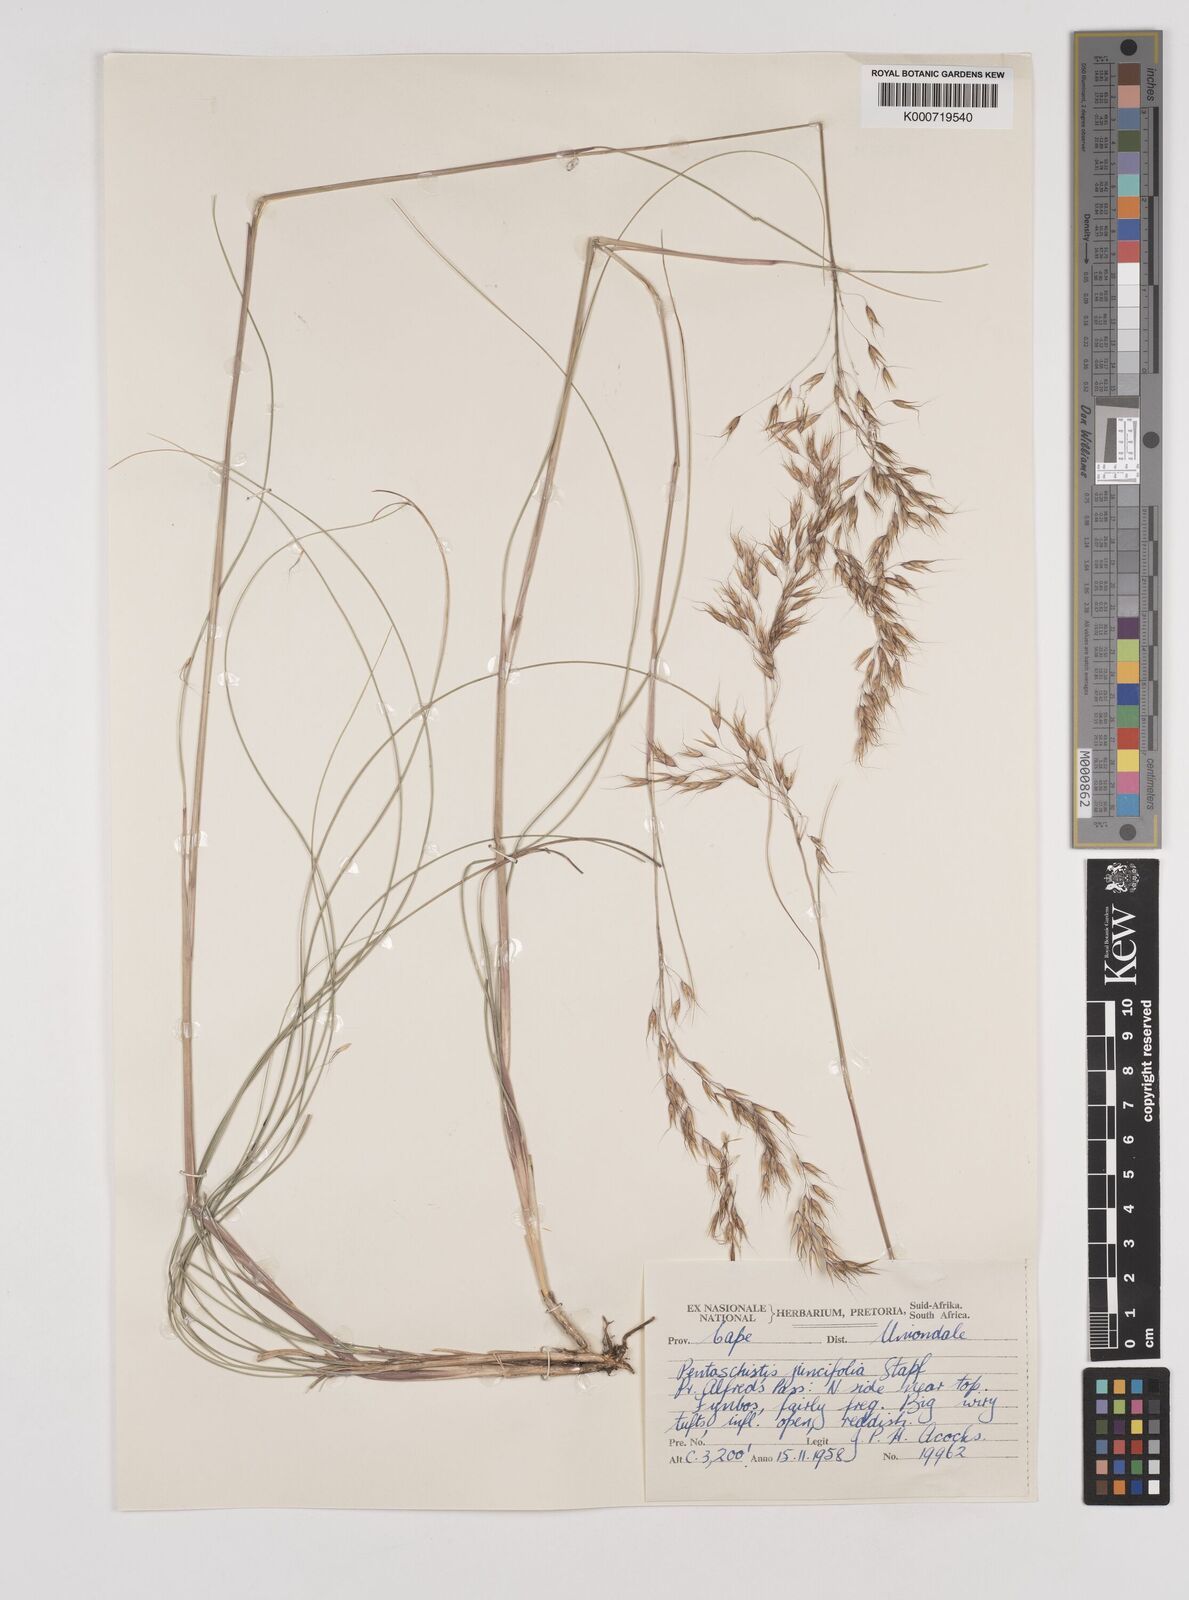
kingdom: Plantae
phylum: Tracheophyta
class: Liliopsida
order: Poales
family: Poaceae
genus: Pentameris
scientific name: Pentameris tortuosa
